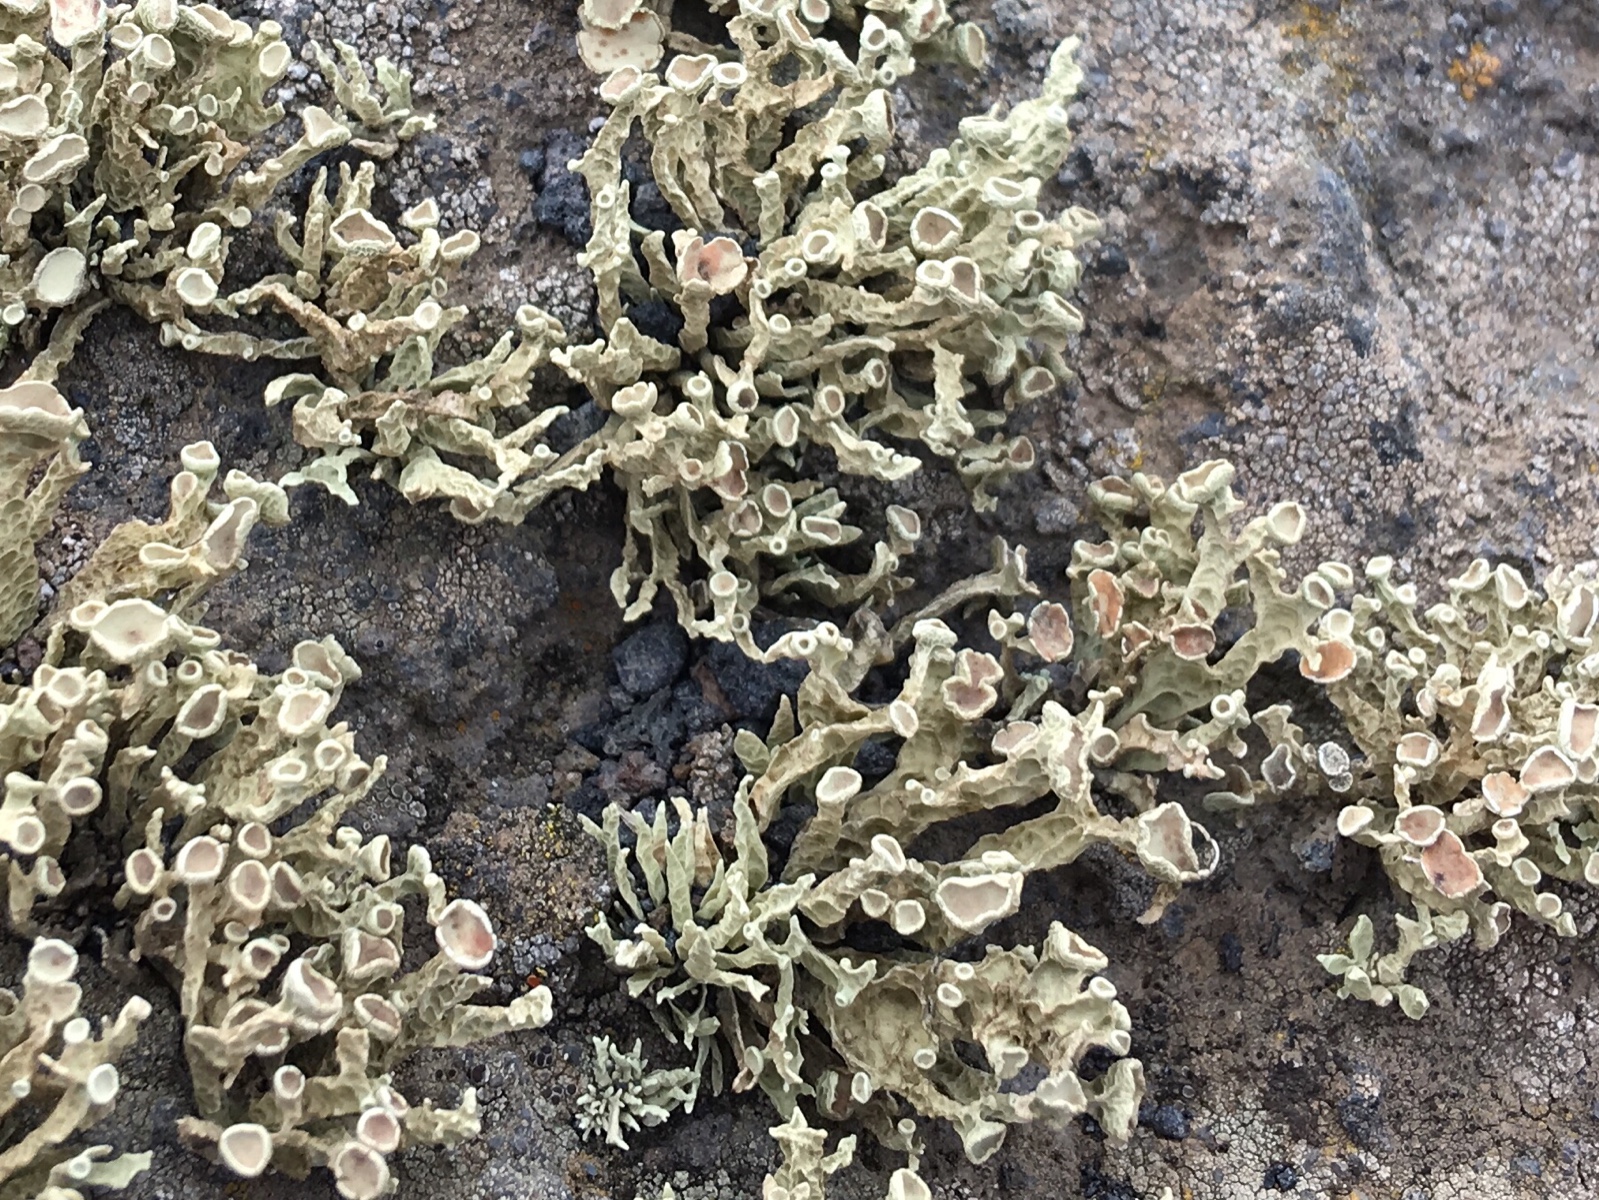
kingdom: Fungi
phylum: Ascomycota
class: Lecanoromycetes
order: Lecanorales
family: Ramalinaceae
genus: Ramalina
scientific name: Ramalina
